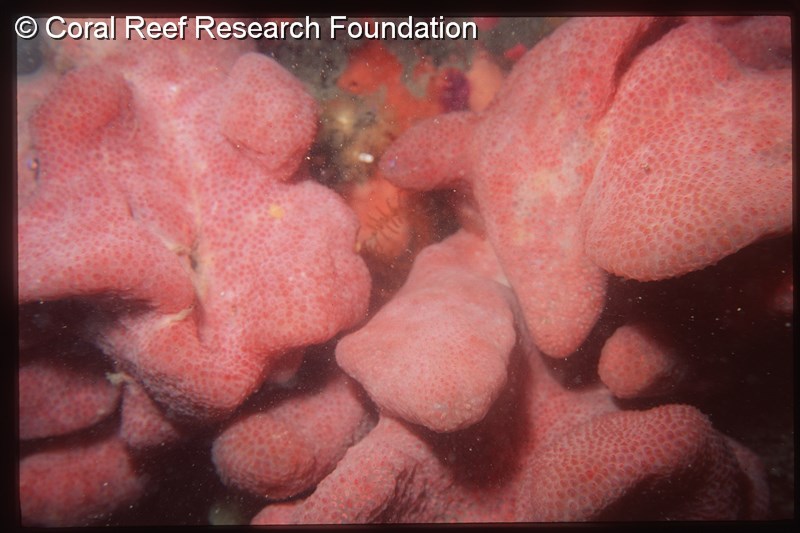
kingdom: Animalia
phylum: Chordata
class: Ascidiacea
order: Aplousobranchia
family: Pseudodistomidae
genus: Pseudodistoma
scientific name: Pseudodistoma
